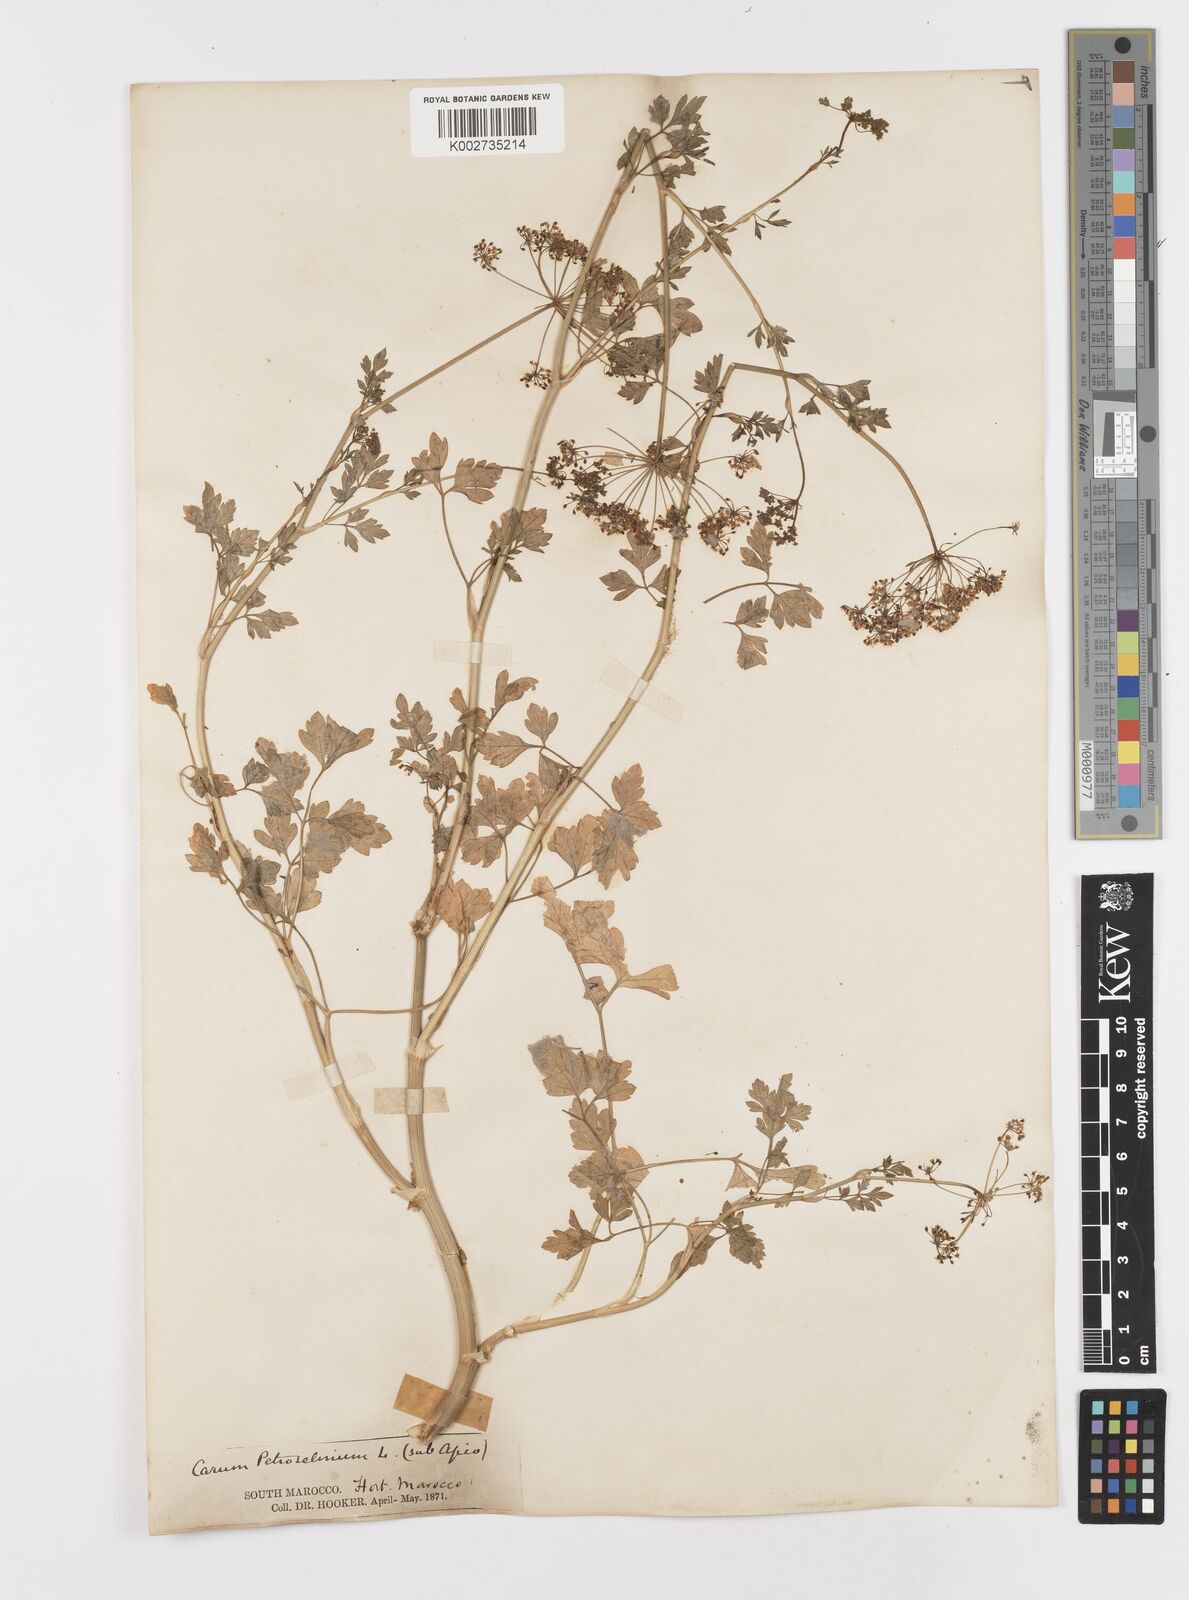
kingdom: Plantae
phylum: Tracheophyta
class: Magnoliopsida
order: Apiales
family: Apiaceae
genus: Petroselinum
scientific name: Petroselinum crispum
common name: Parsley
